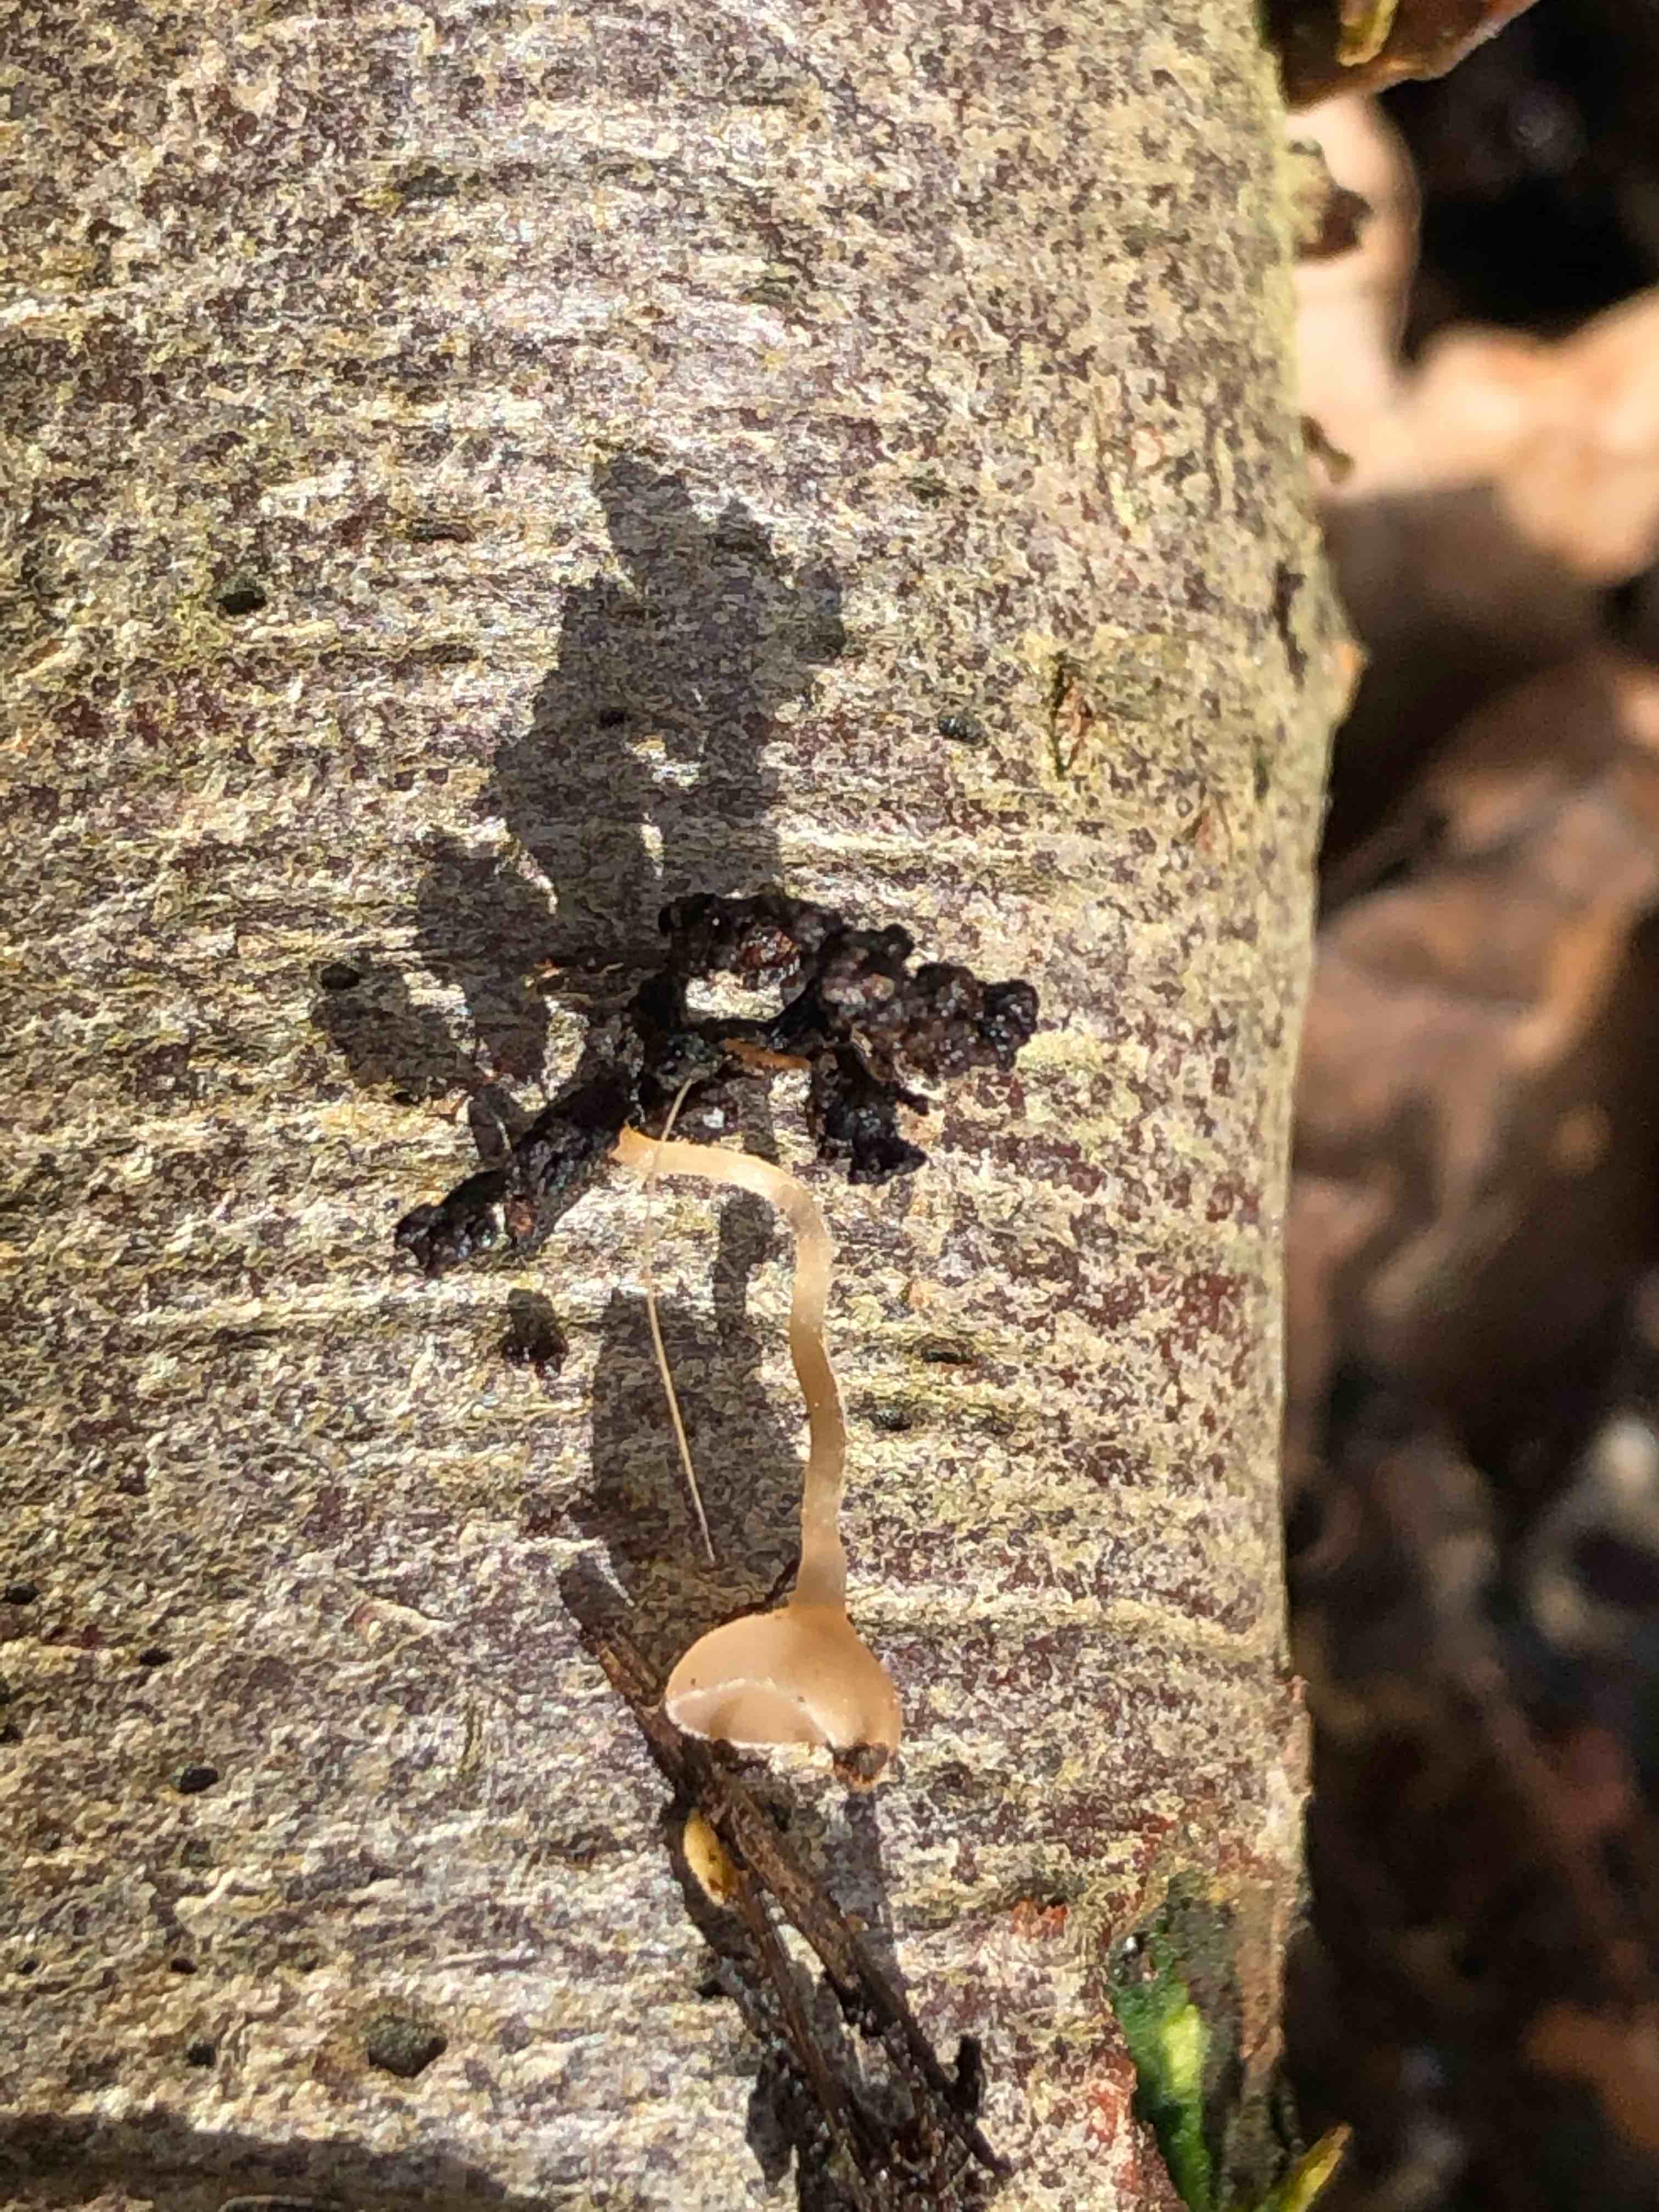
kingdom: Fungi
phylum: Ascomycota
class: Leotiomycetes
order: Helotiales
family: Sclerotiniaceae
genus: Ciboria
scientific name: Ciboria amentacea
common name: ellerakle-knoldskive
